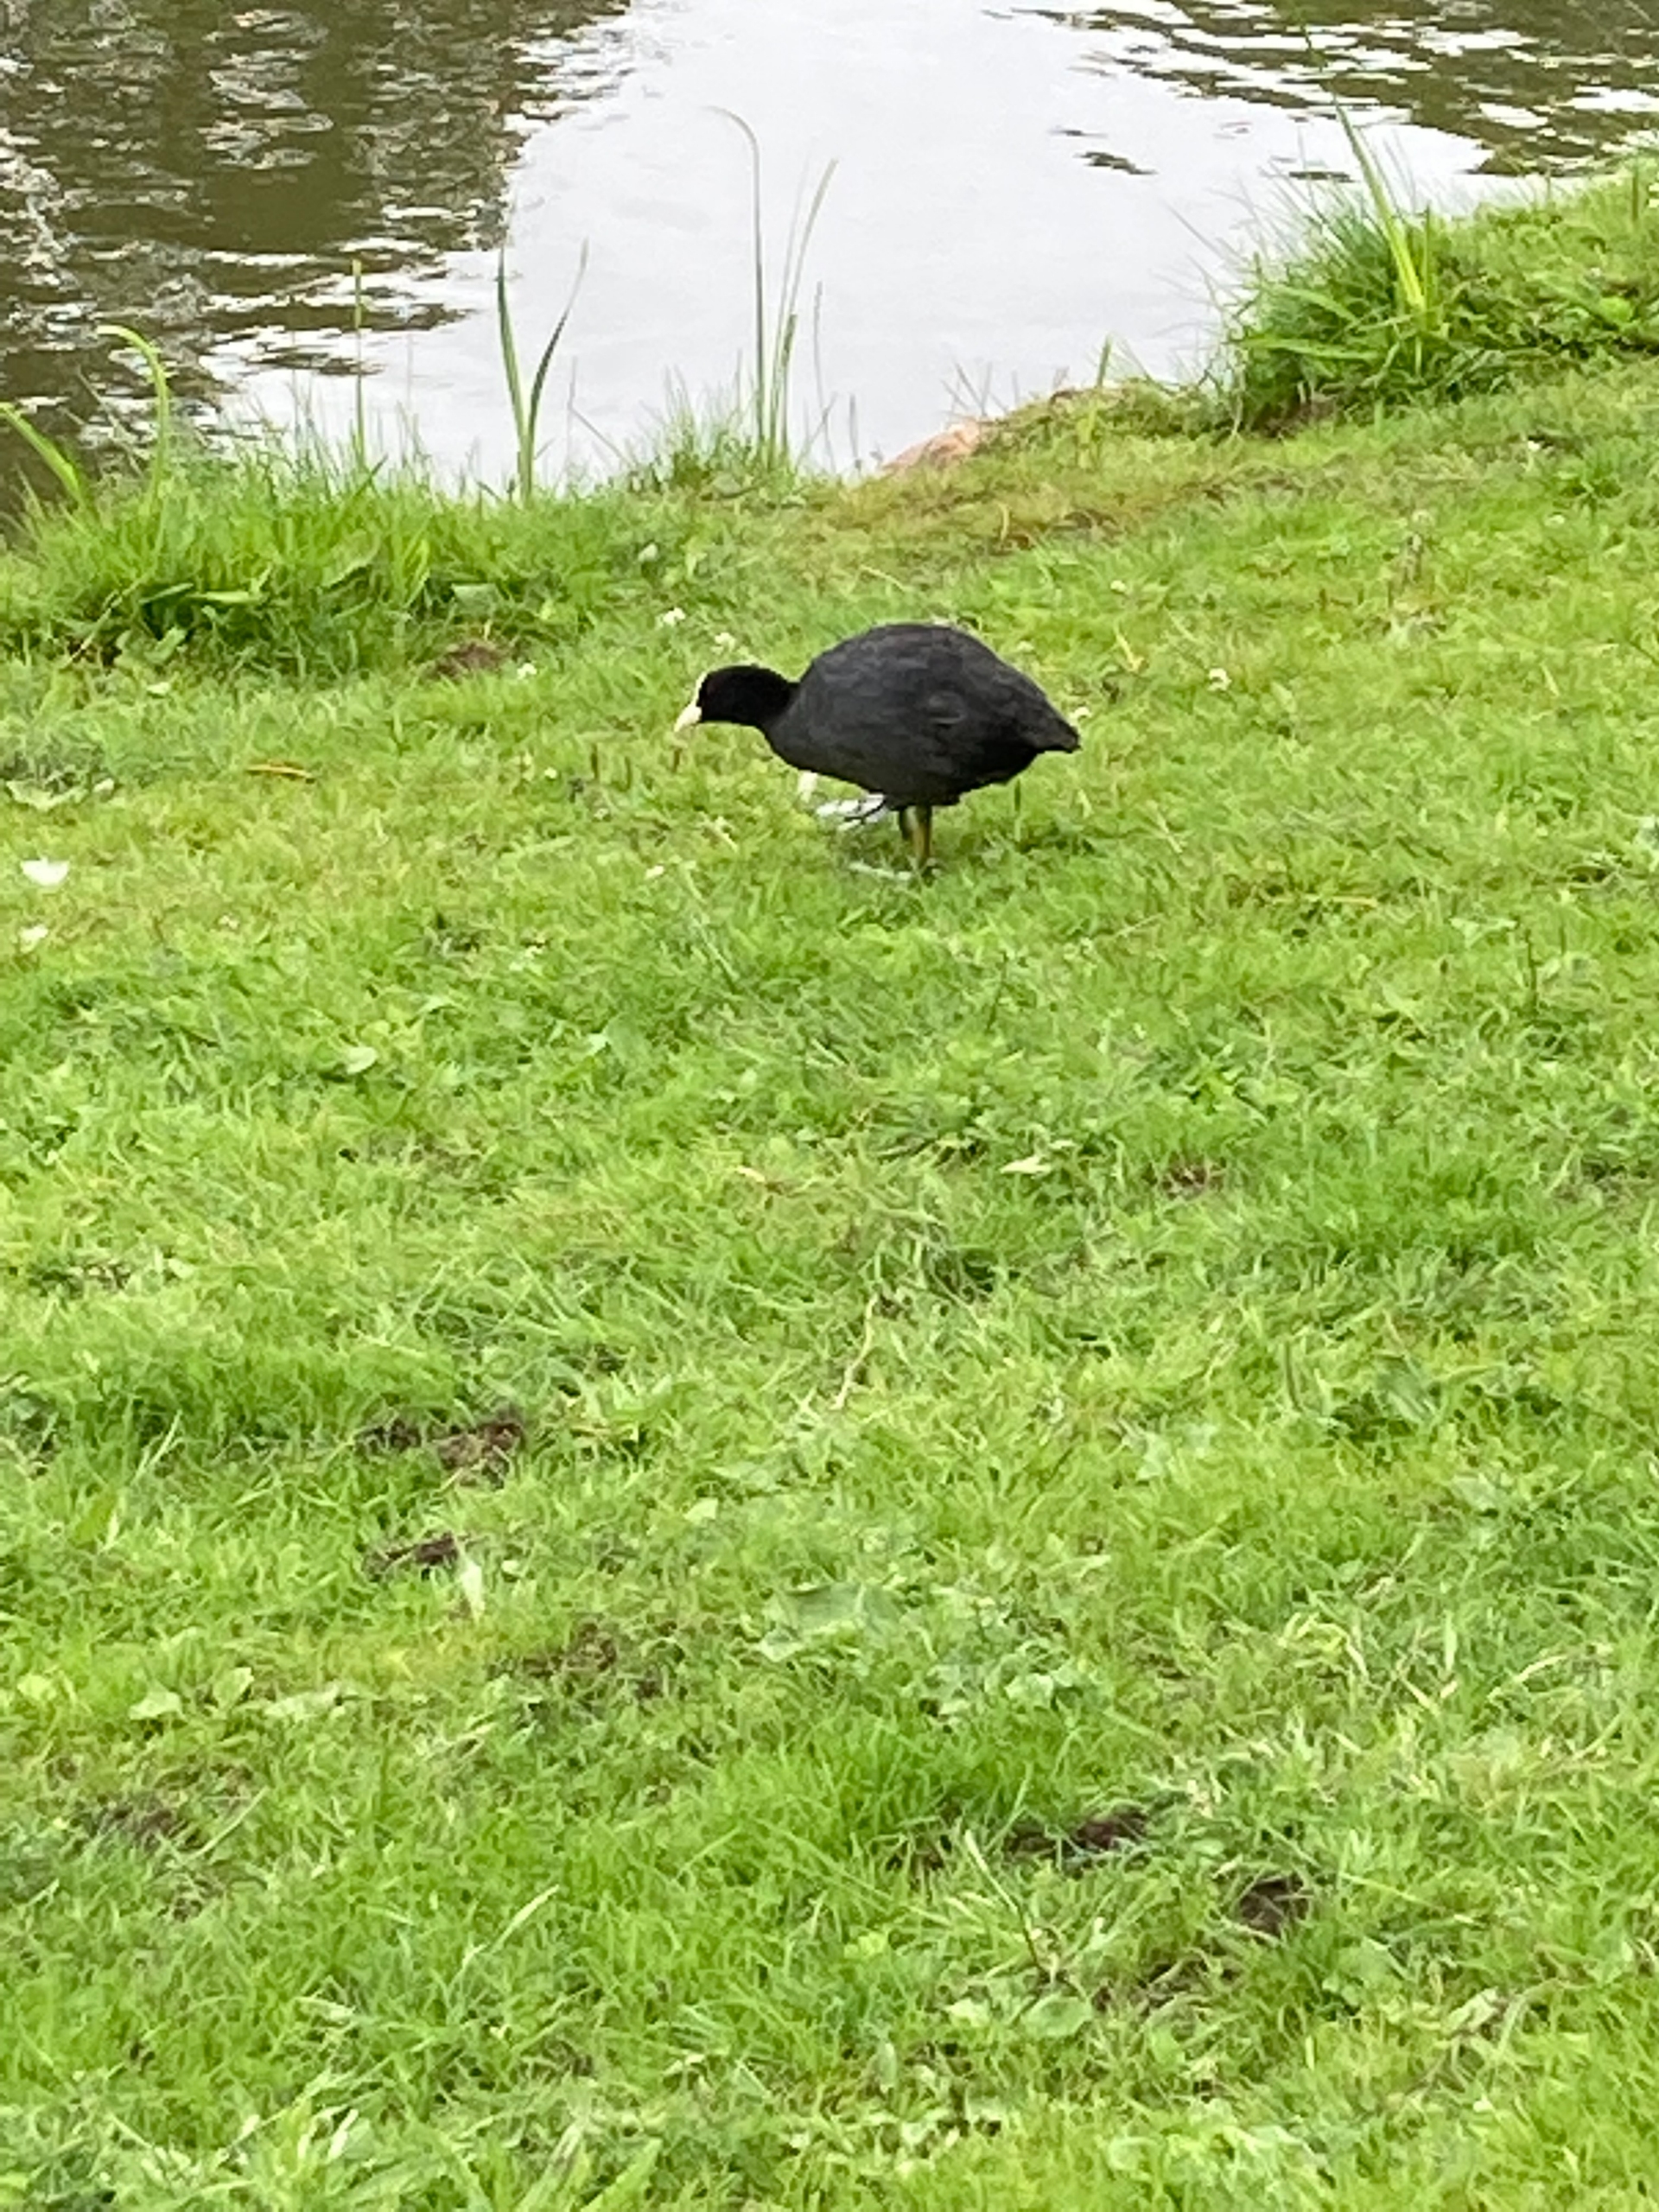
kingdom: Animalia
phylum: Chordata
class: Aves
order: Gruiformes
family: Rallidae
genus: Fulica
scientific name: Fulica atra
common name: Blishøne
